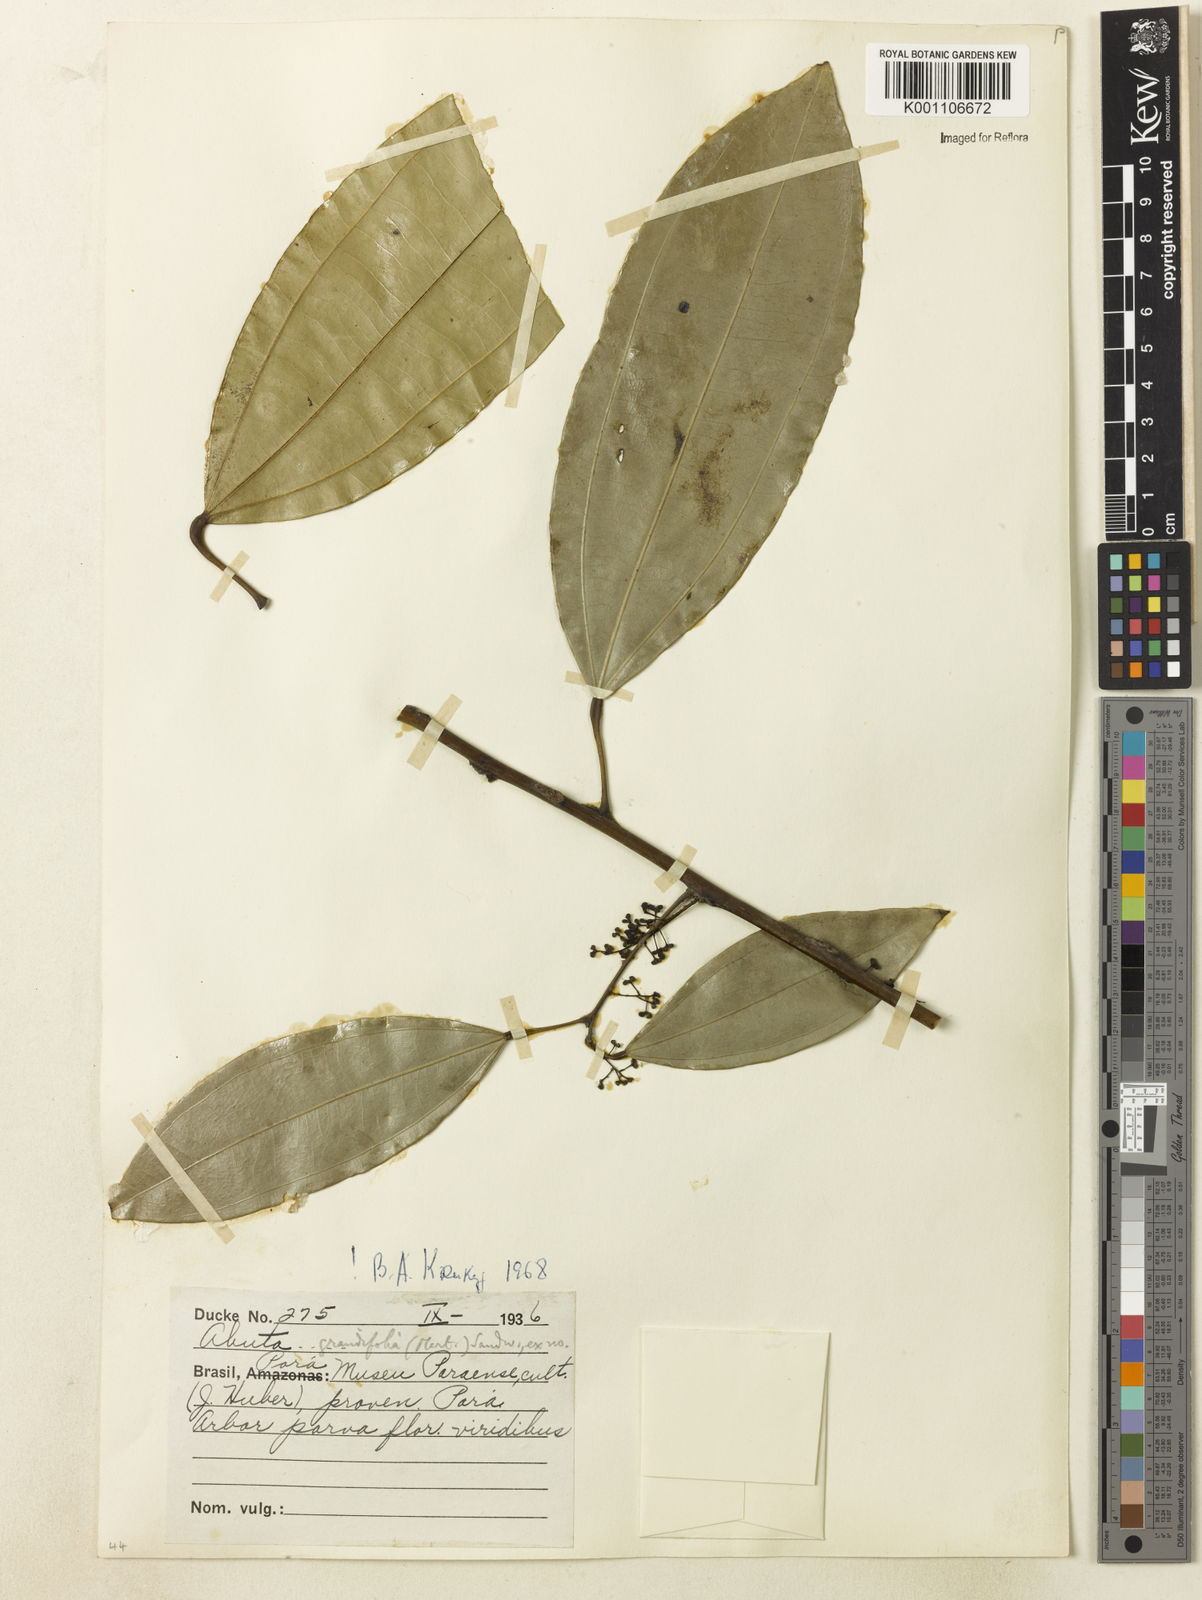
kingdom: Plantae
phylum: Tracheophyta
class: Magnoliopsida
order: Ranunculales
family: Menispermaceae
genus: Abuta
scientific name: Abuta grandifolia
